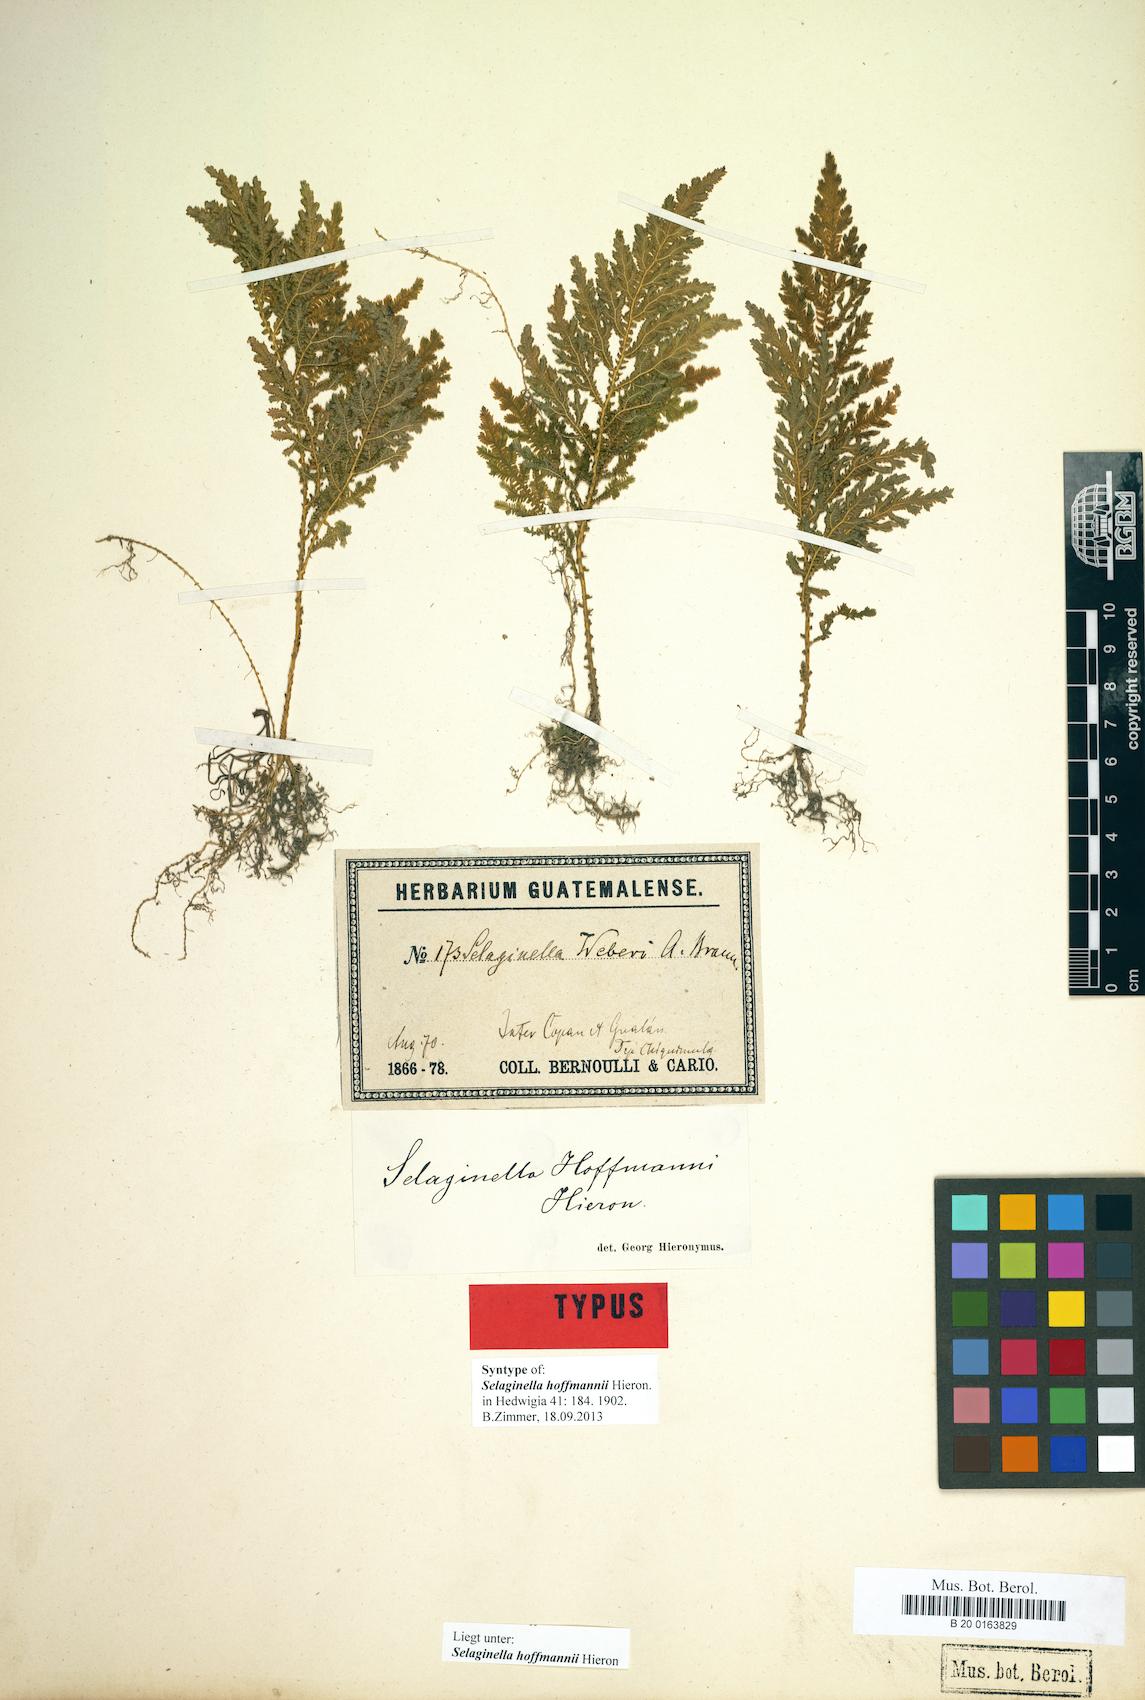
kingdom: Plantae
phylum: Tracheophyta
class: Lycopodiopsida
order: Selaginellales
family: Selaginellaceae
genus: Selaginella
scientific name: Selaginella hoffmannii
